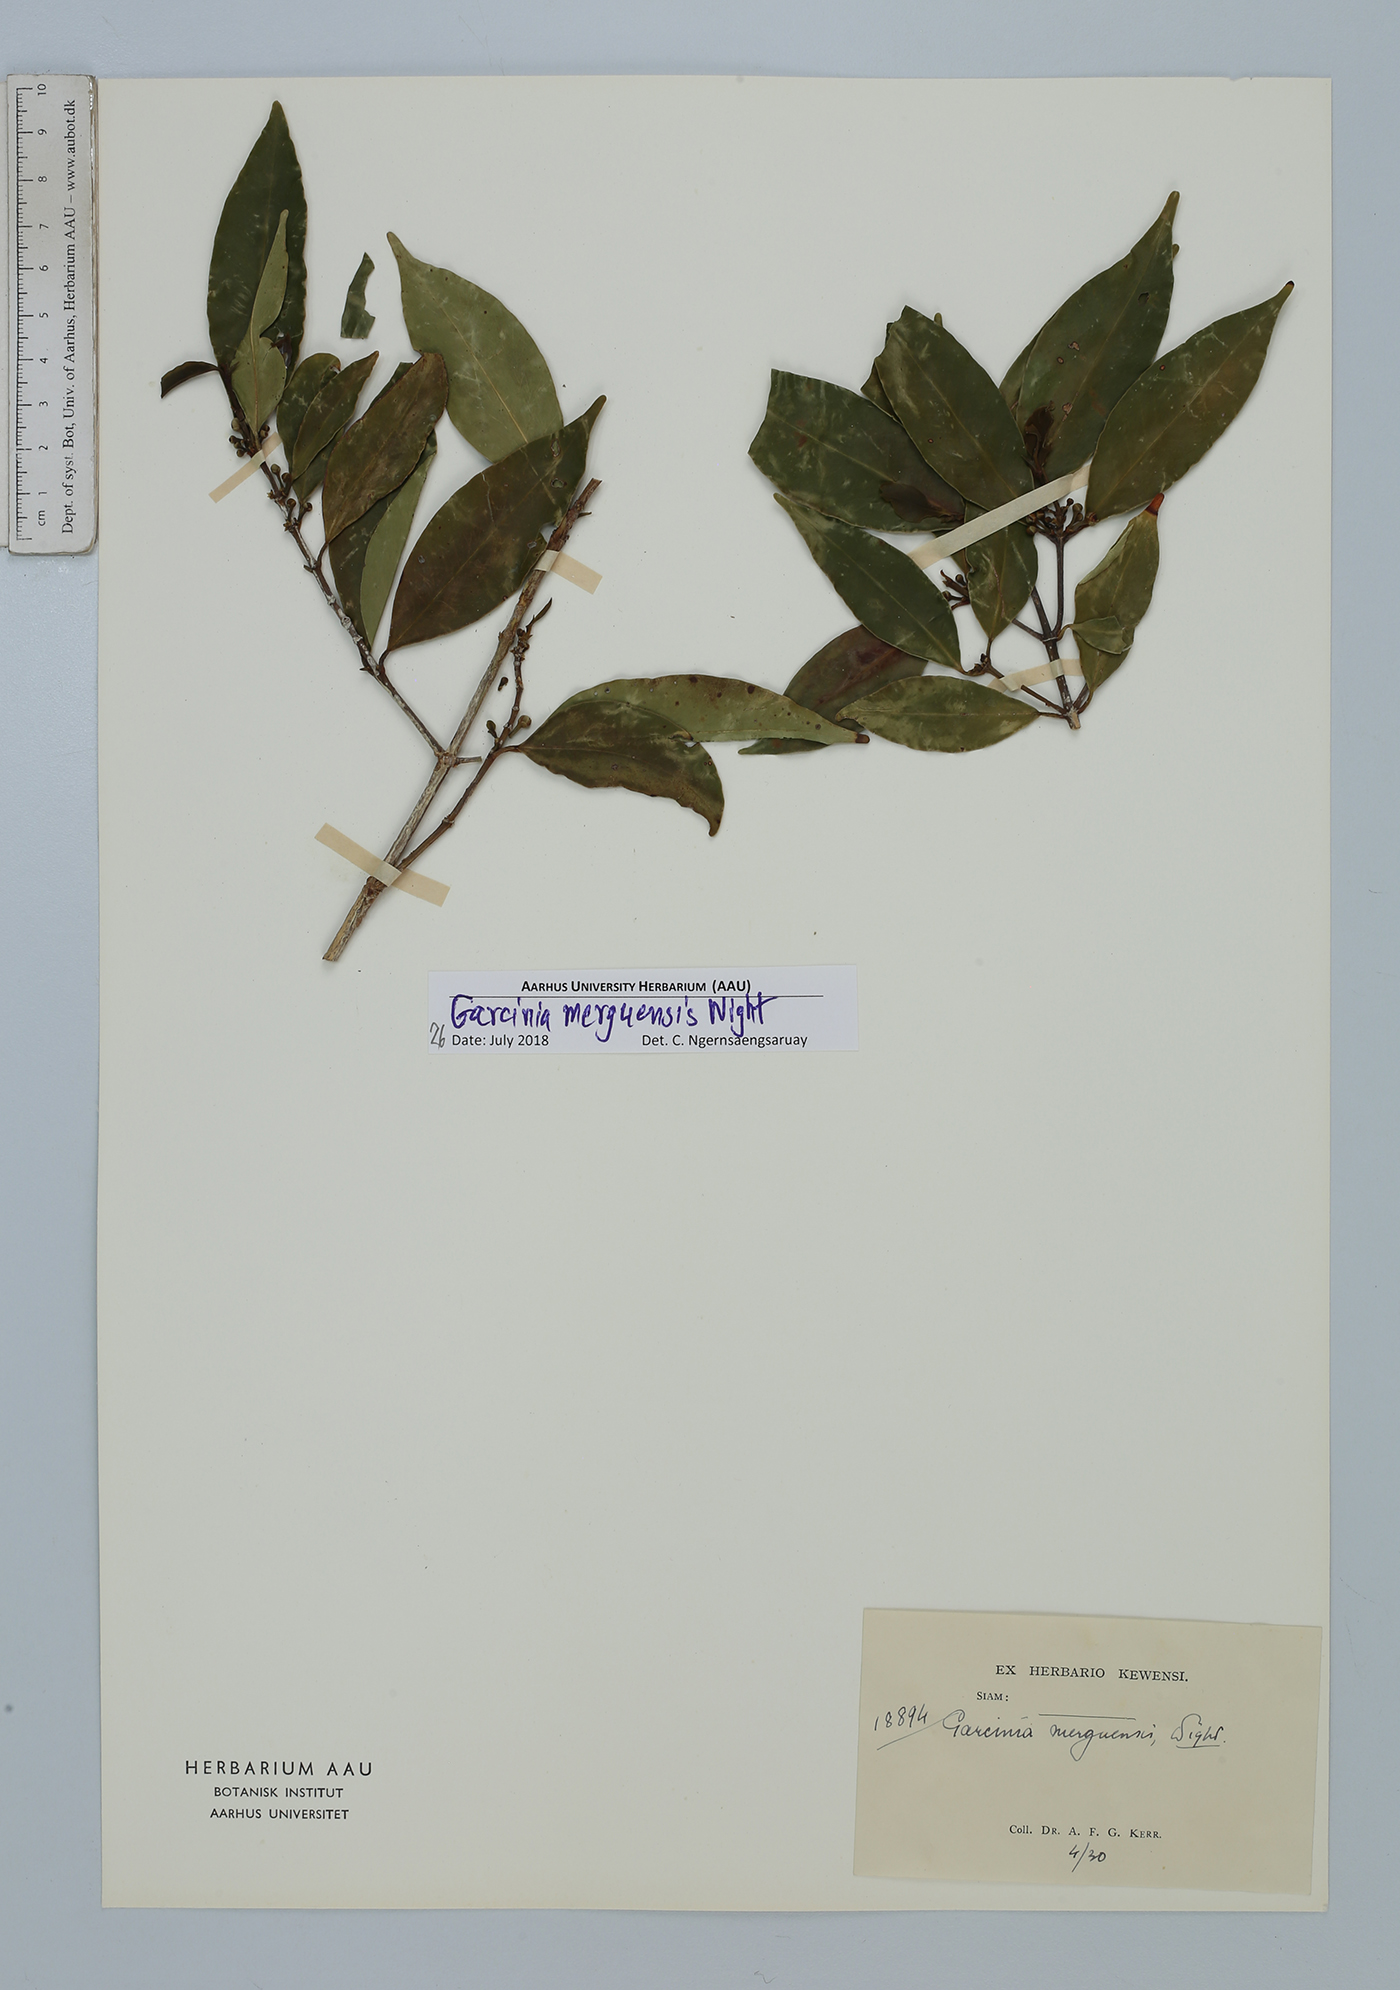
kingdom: Plantae
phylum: Tracheophyta
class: Magnoliopsida
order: Malpighiales
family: Clusiaceae
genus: Garcinia
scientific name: Garcinia merguensis
